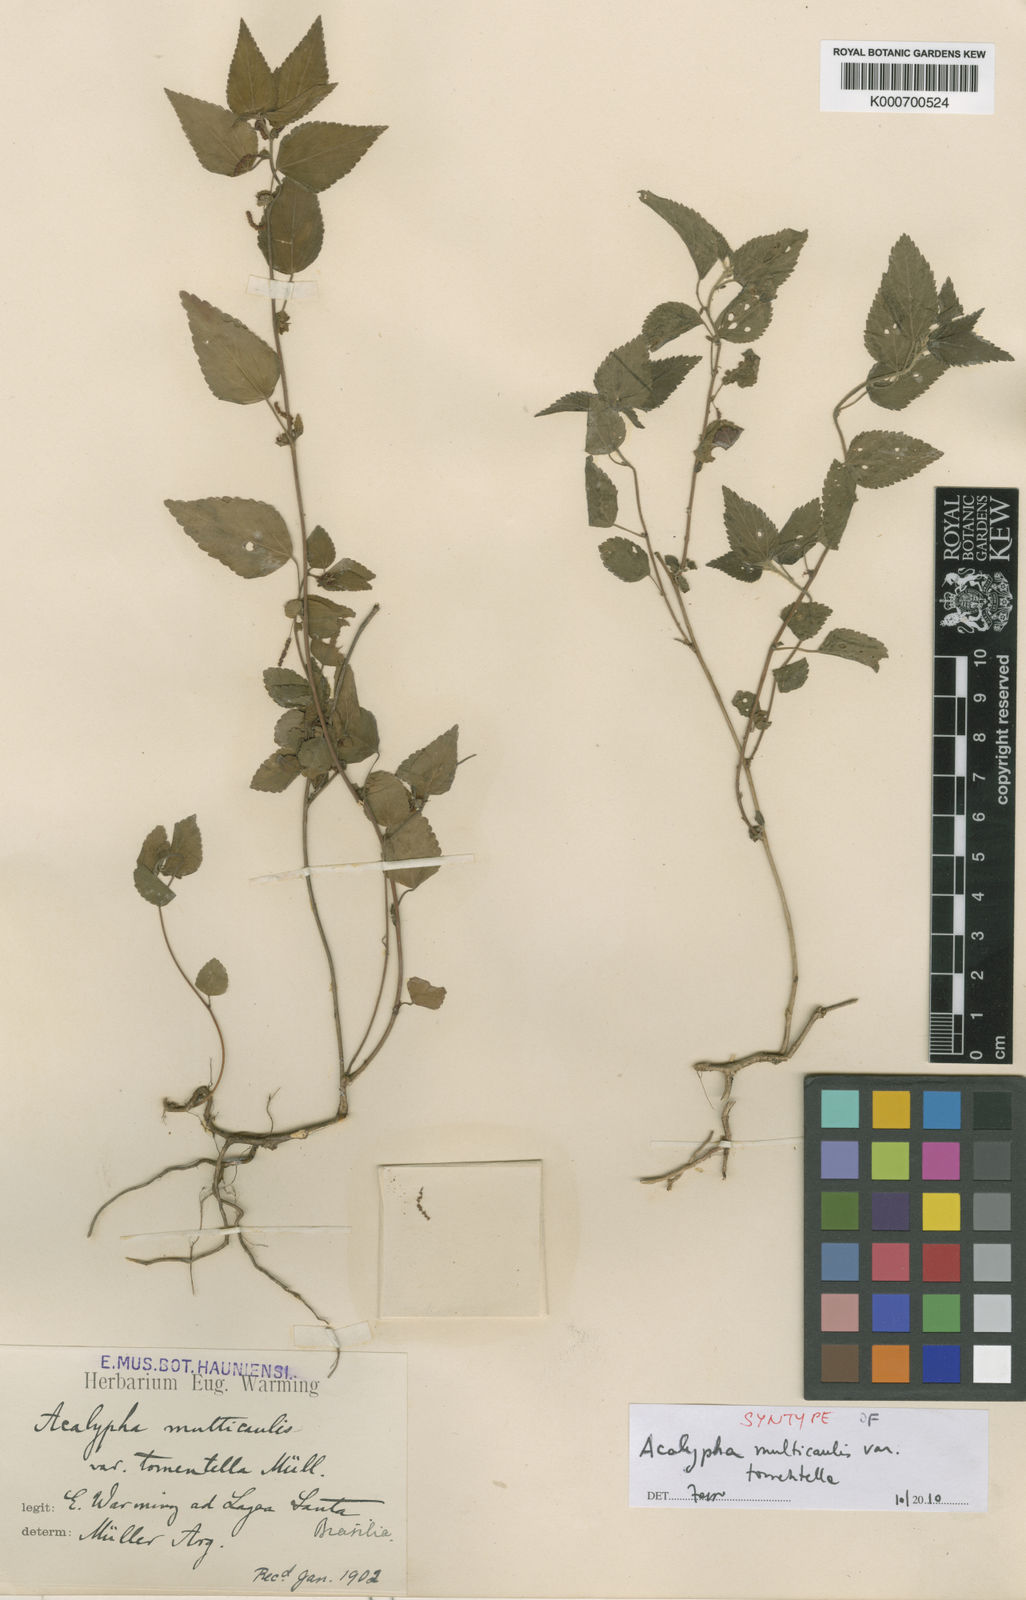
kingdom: Plantae
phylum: Tracheophyta
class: Magnoliopsida
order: Malpighiales
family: Euphorbiaceae
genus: Acalypha
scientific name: Acalypha
